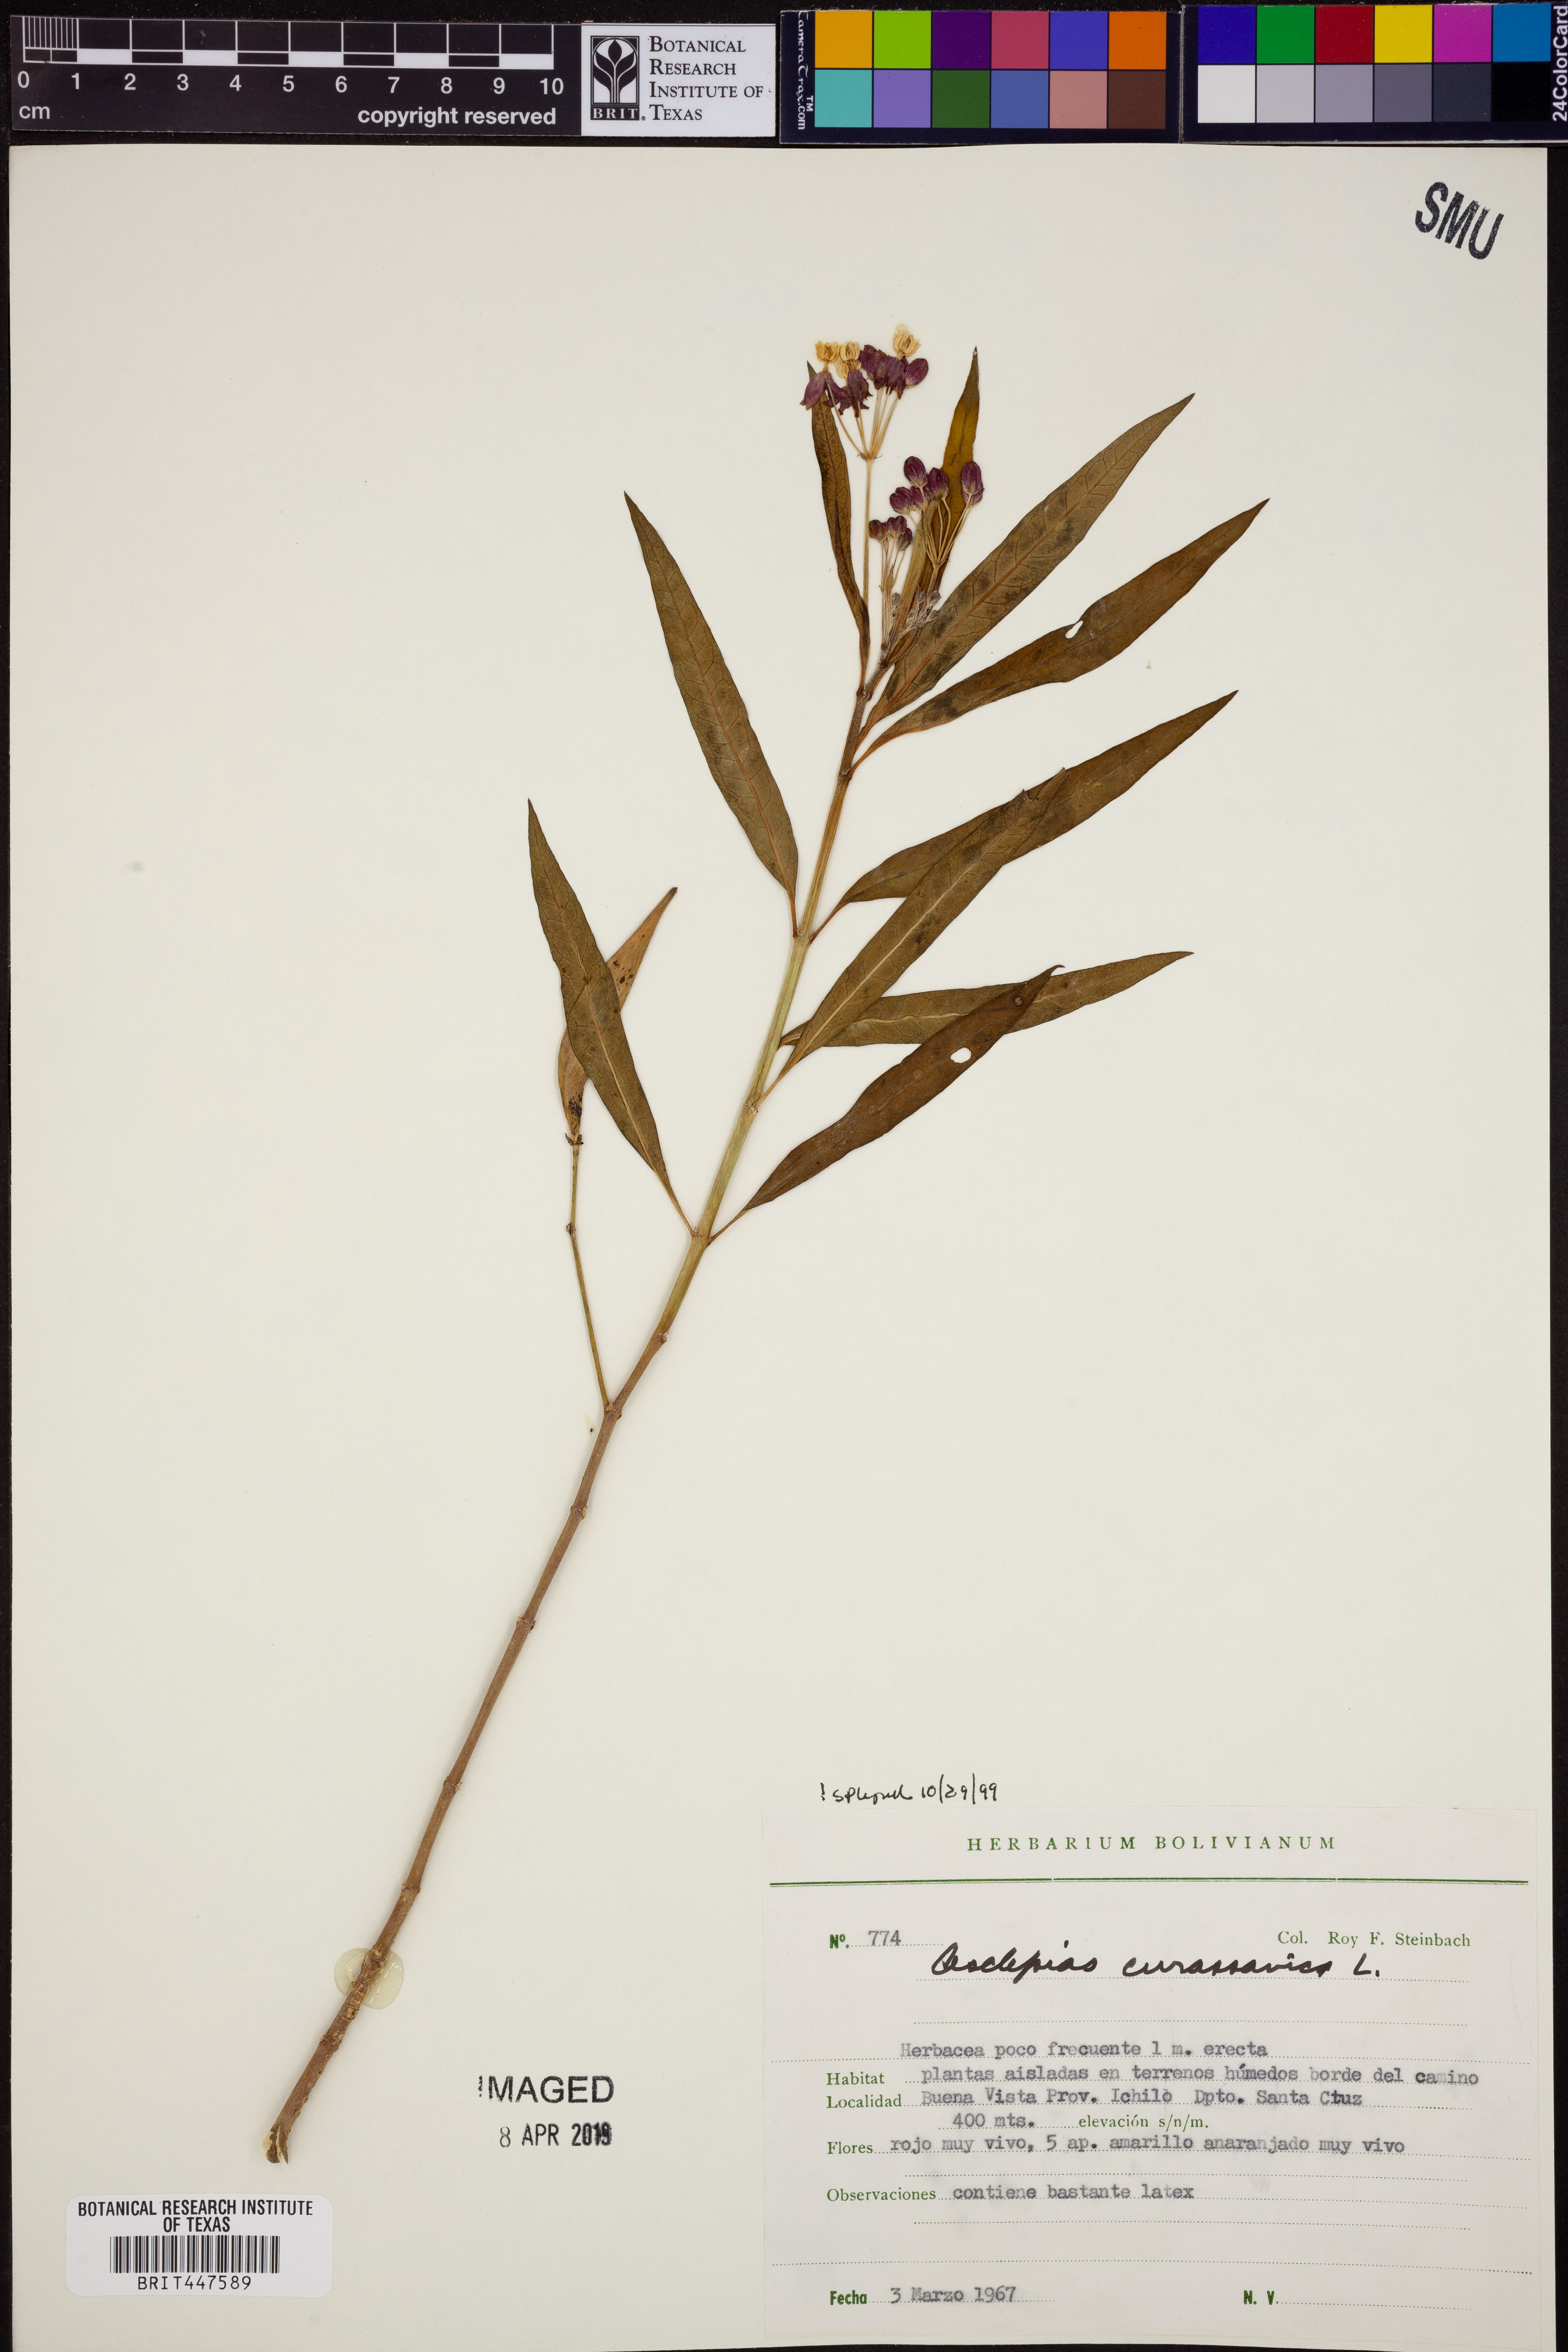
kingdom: Plantae
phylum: Tracheophyta
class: Magnoliopsida
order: Gentianales
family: Apocynaceae
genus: Asclepias
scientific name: Asclepias curassavica
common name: Bloodflower
